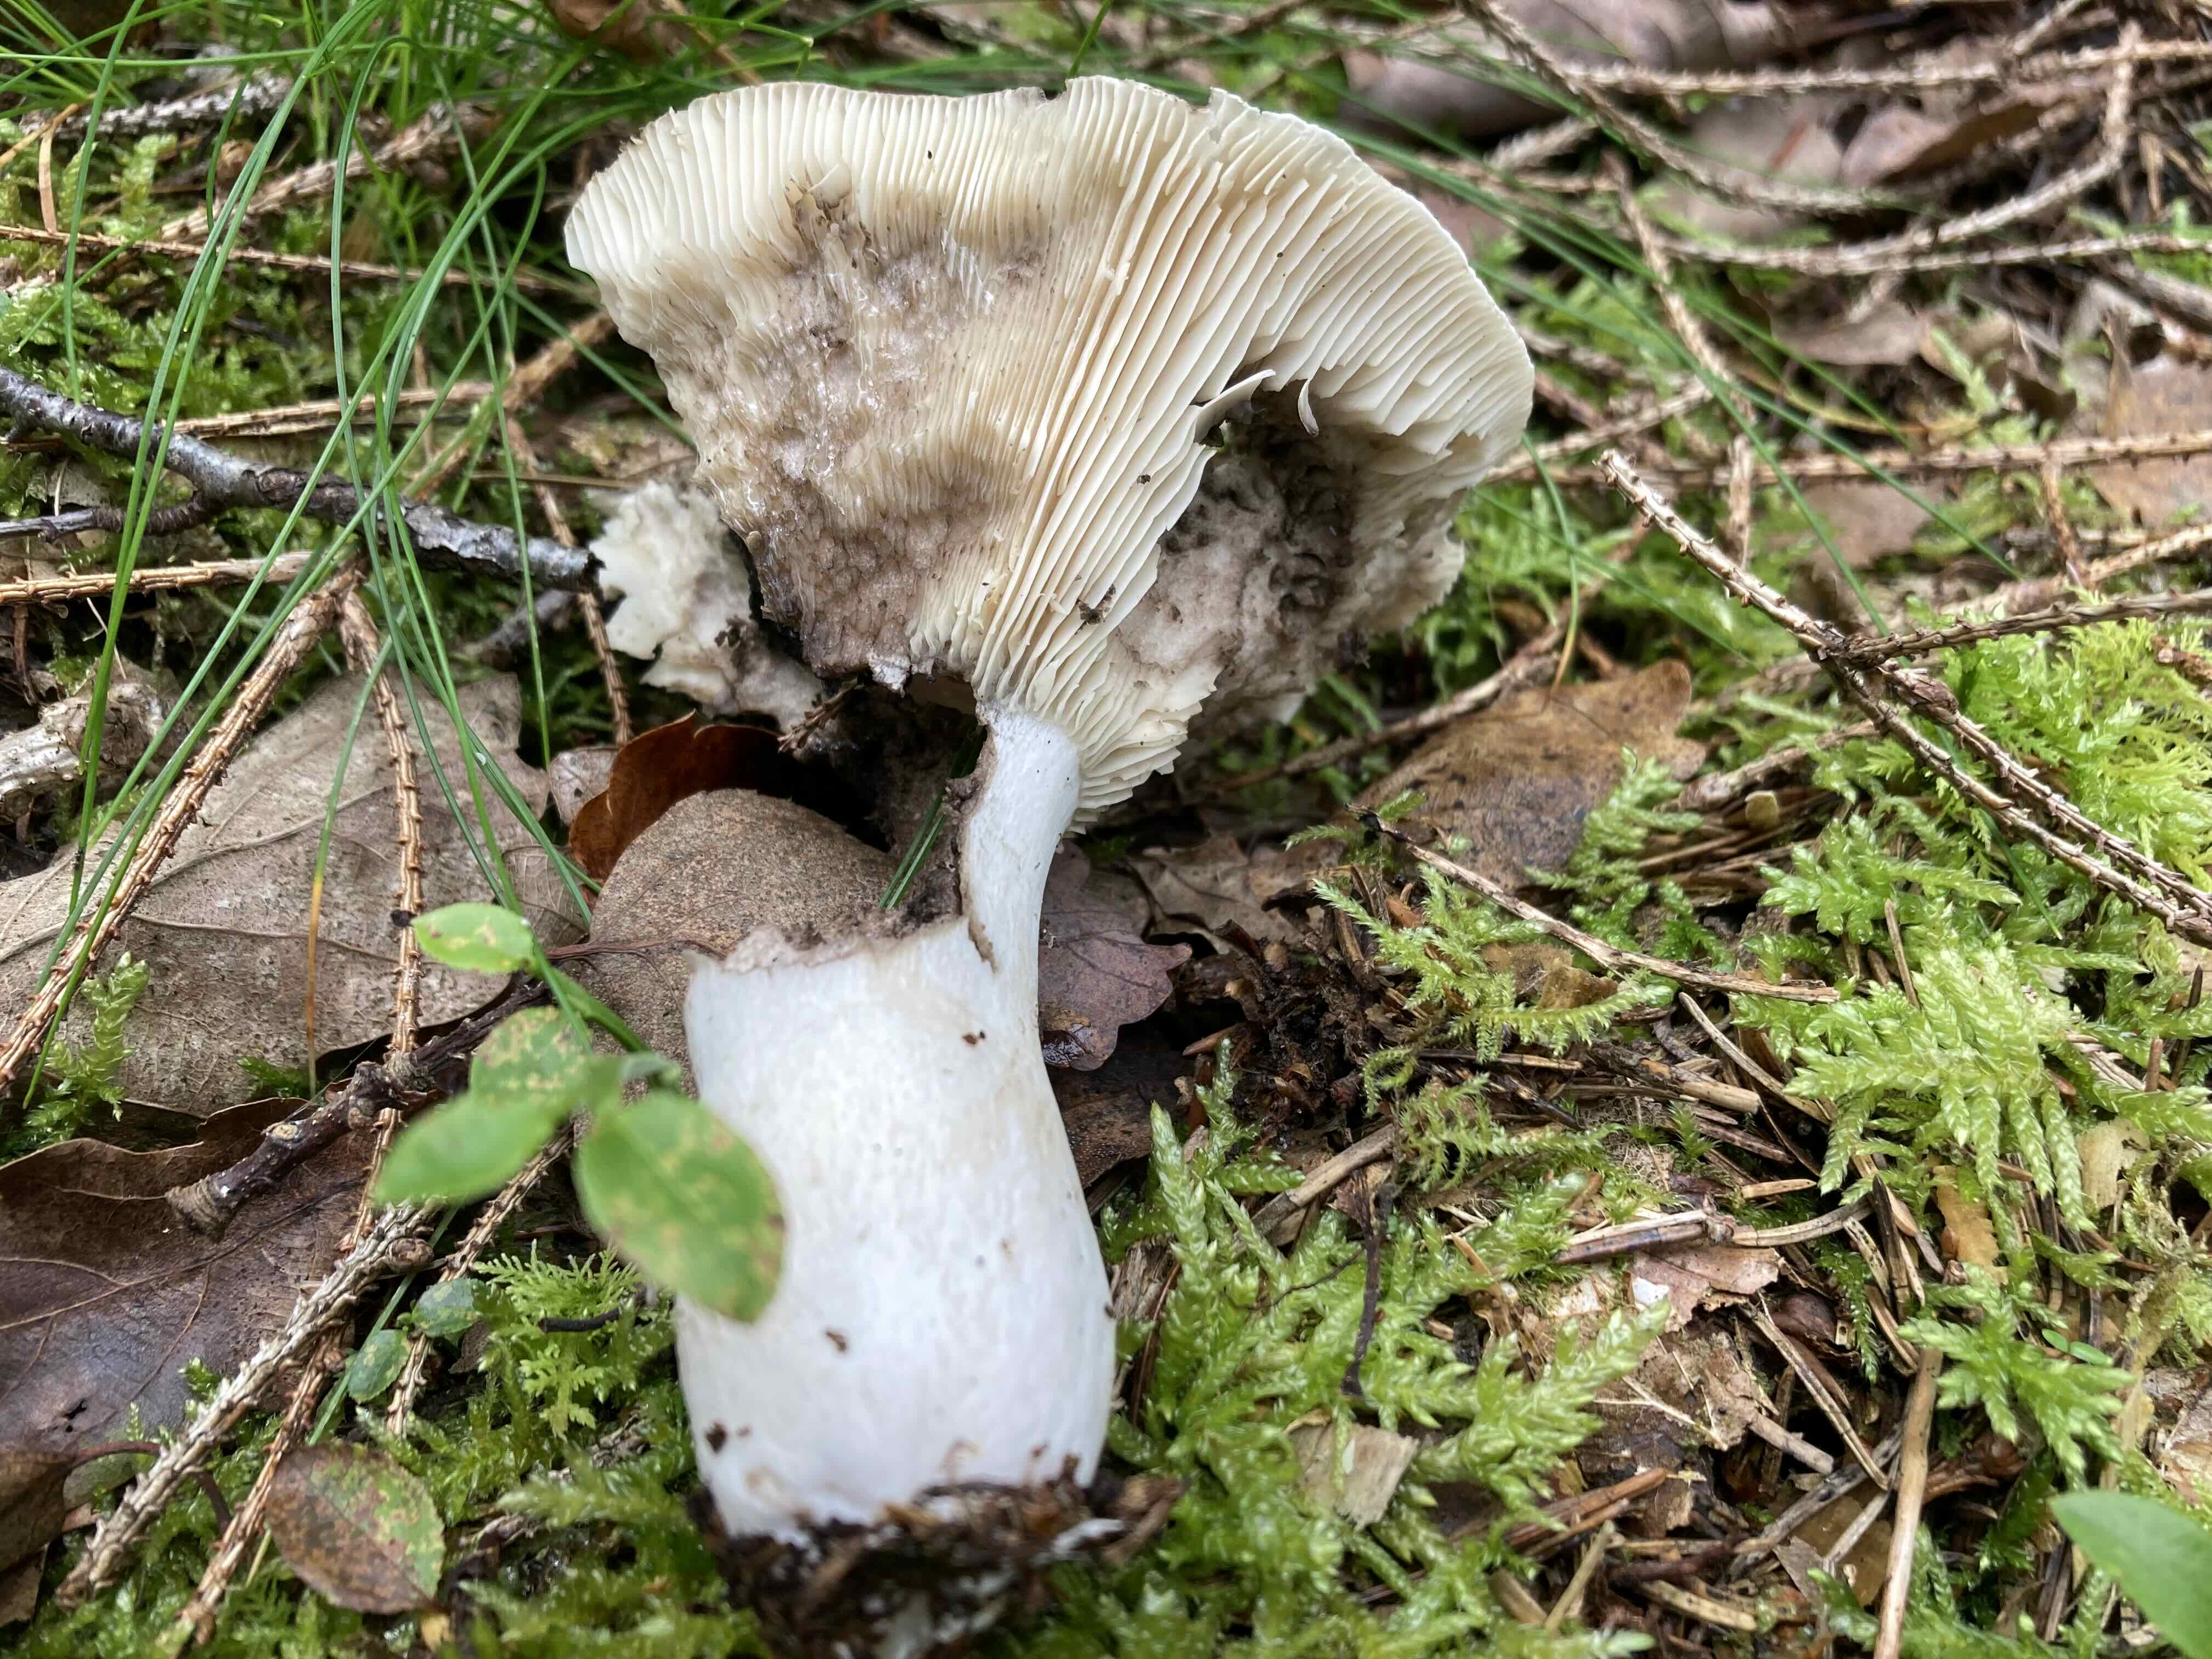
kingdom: Fungi
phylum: Basidiomycota
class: Agaricomycetes
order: Russulales
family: Russulaceae
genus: Russula
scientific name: Russula adusta
